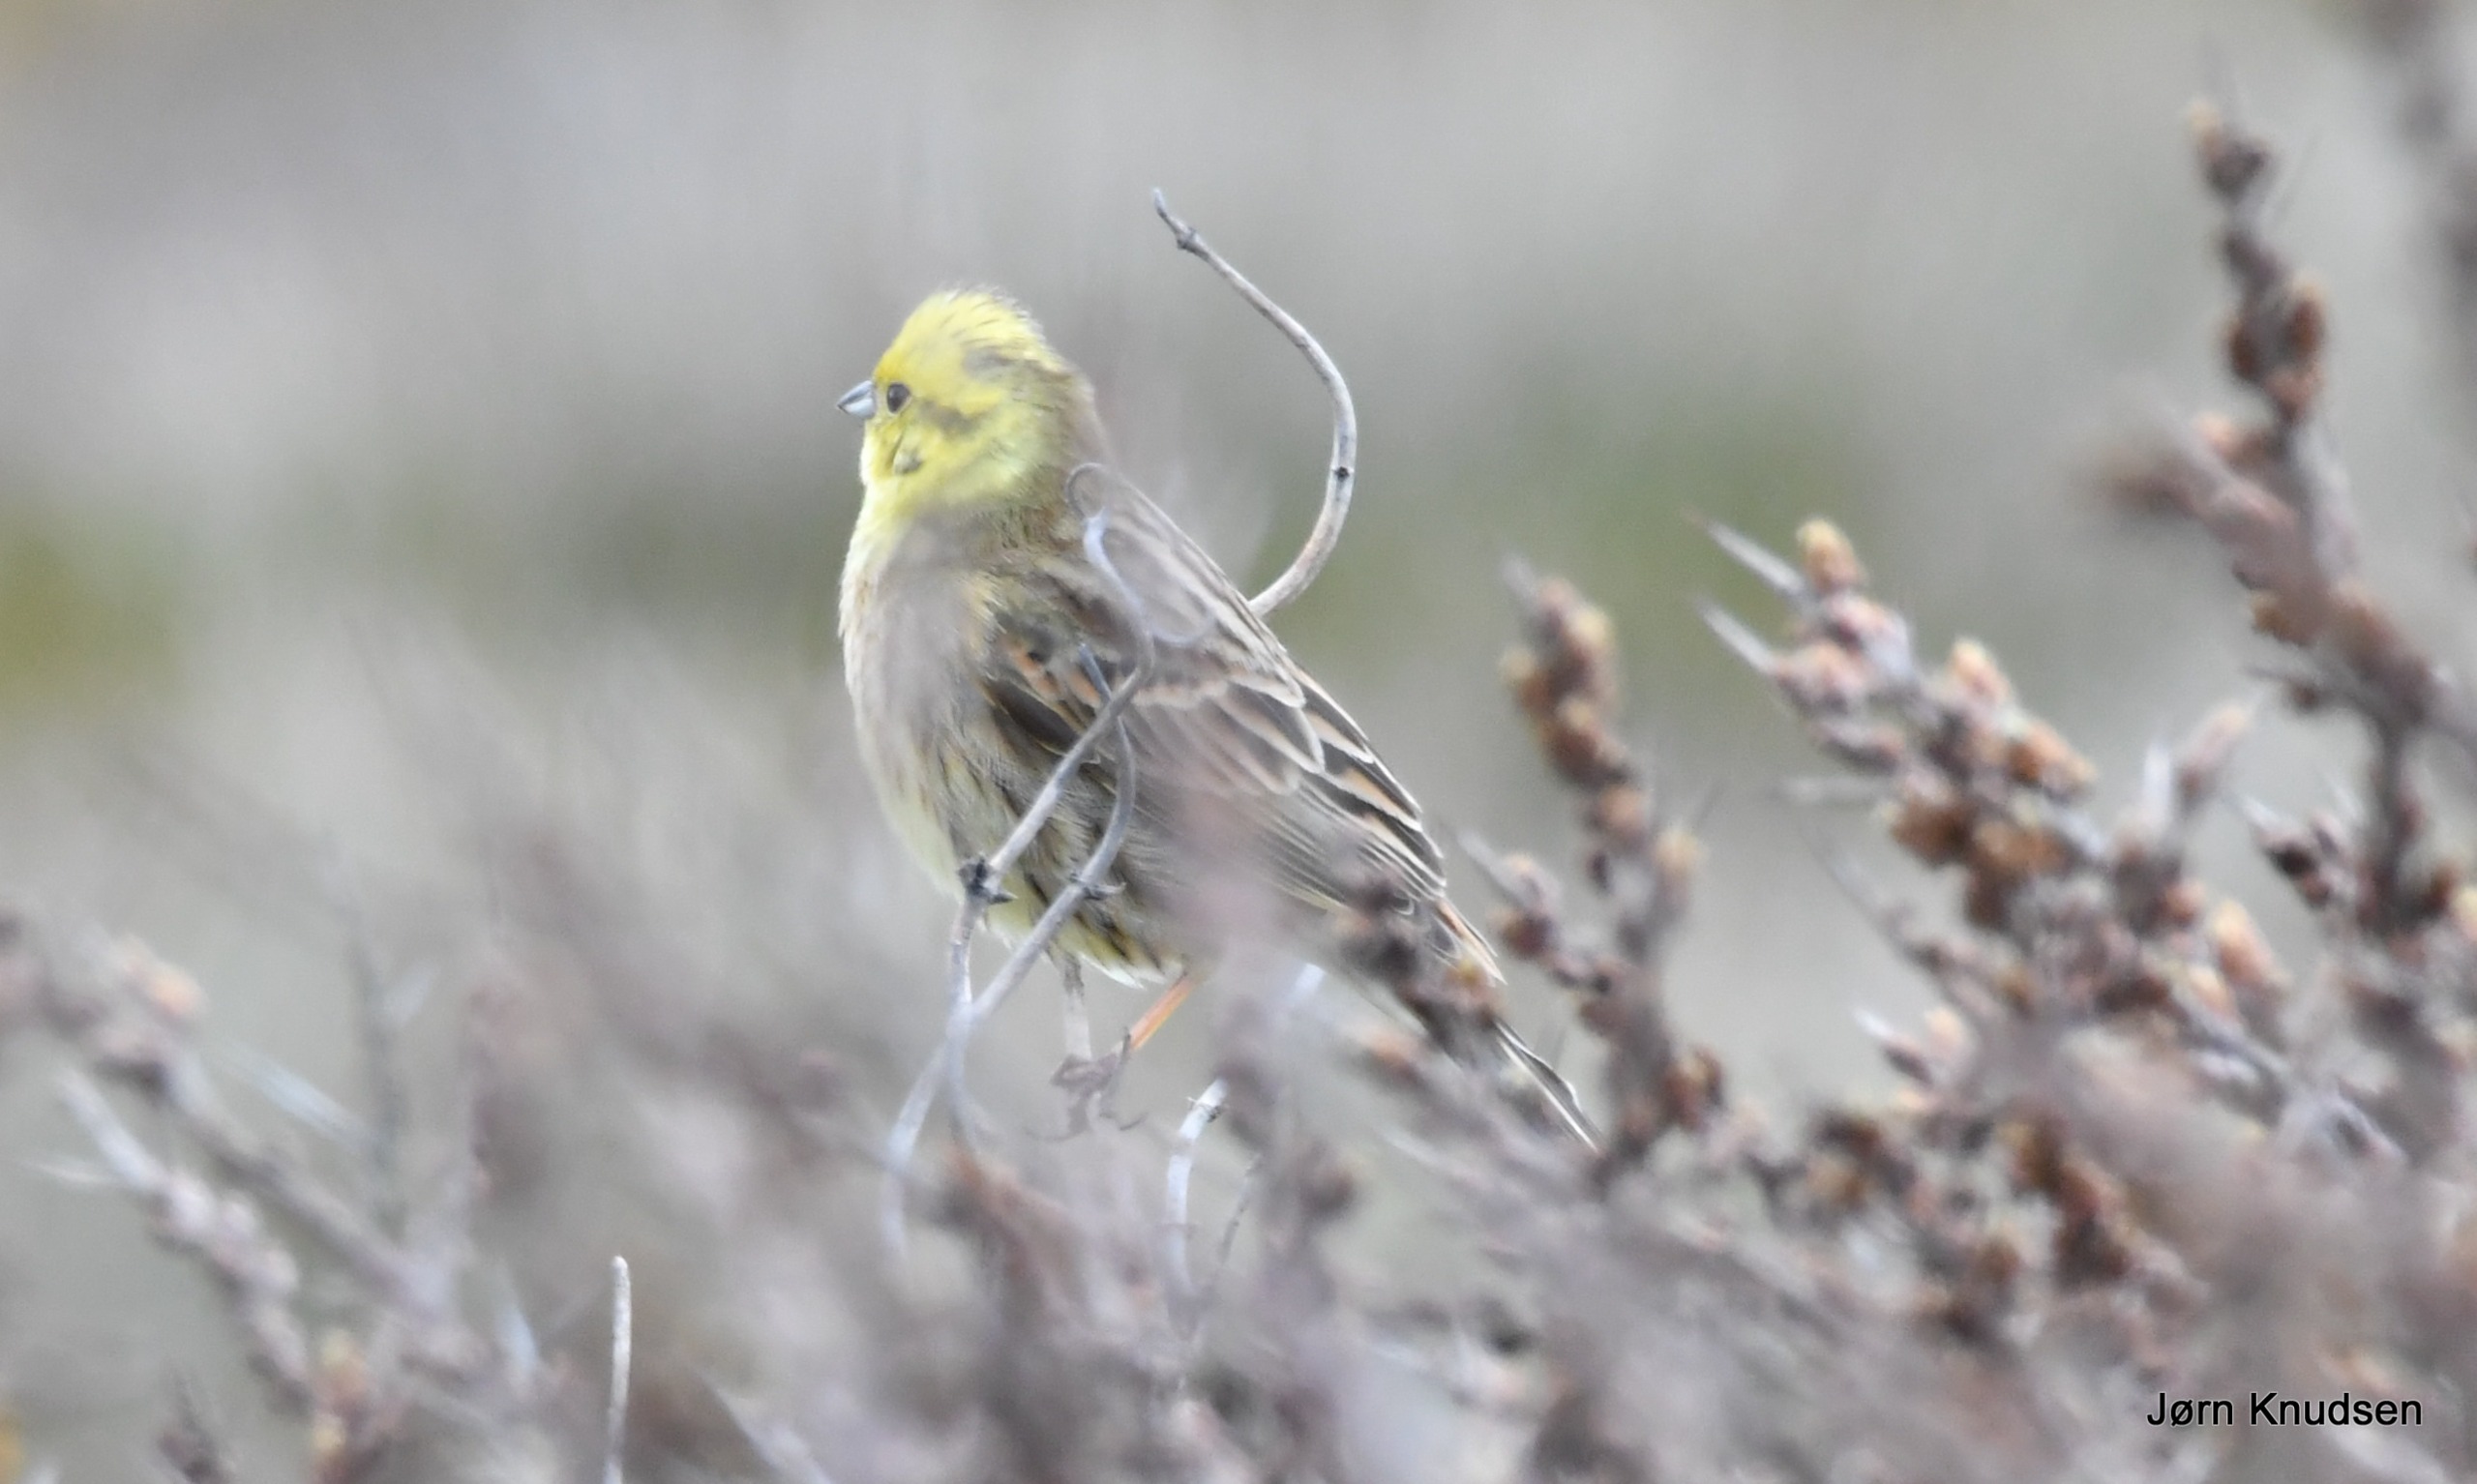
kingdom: Animalia
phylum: Chordata
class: Aves
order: Passeriformes
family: Emberizidae
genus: Emberiza
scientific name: Emberiza citrinella
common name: Gulspurv
